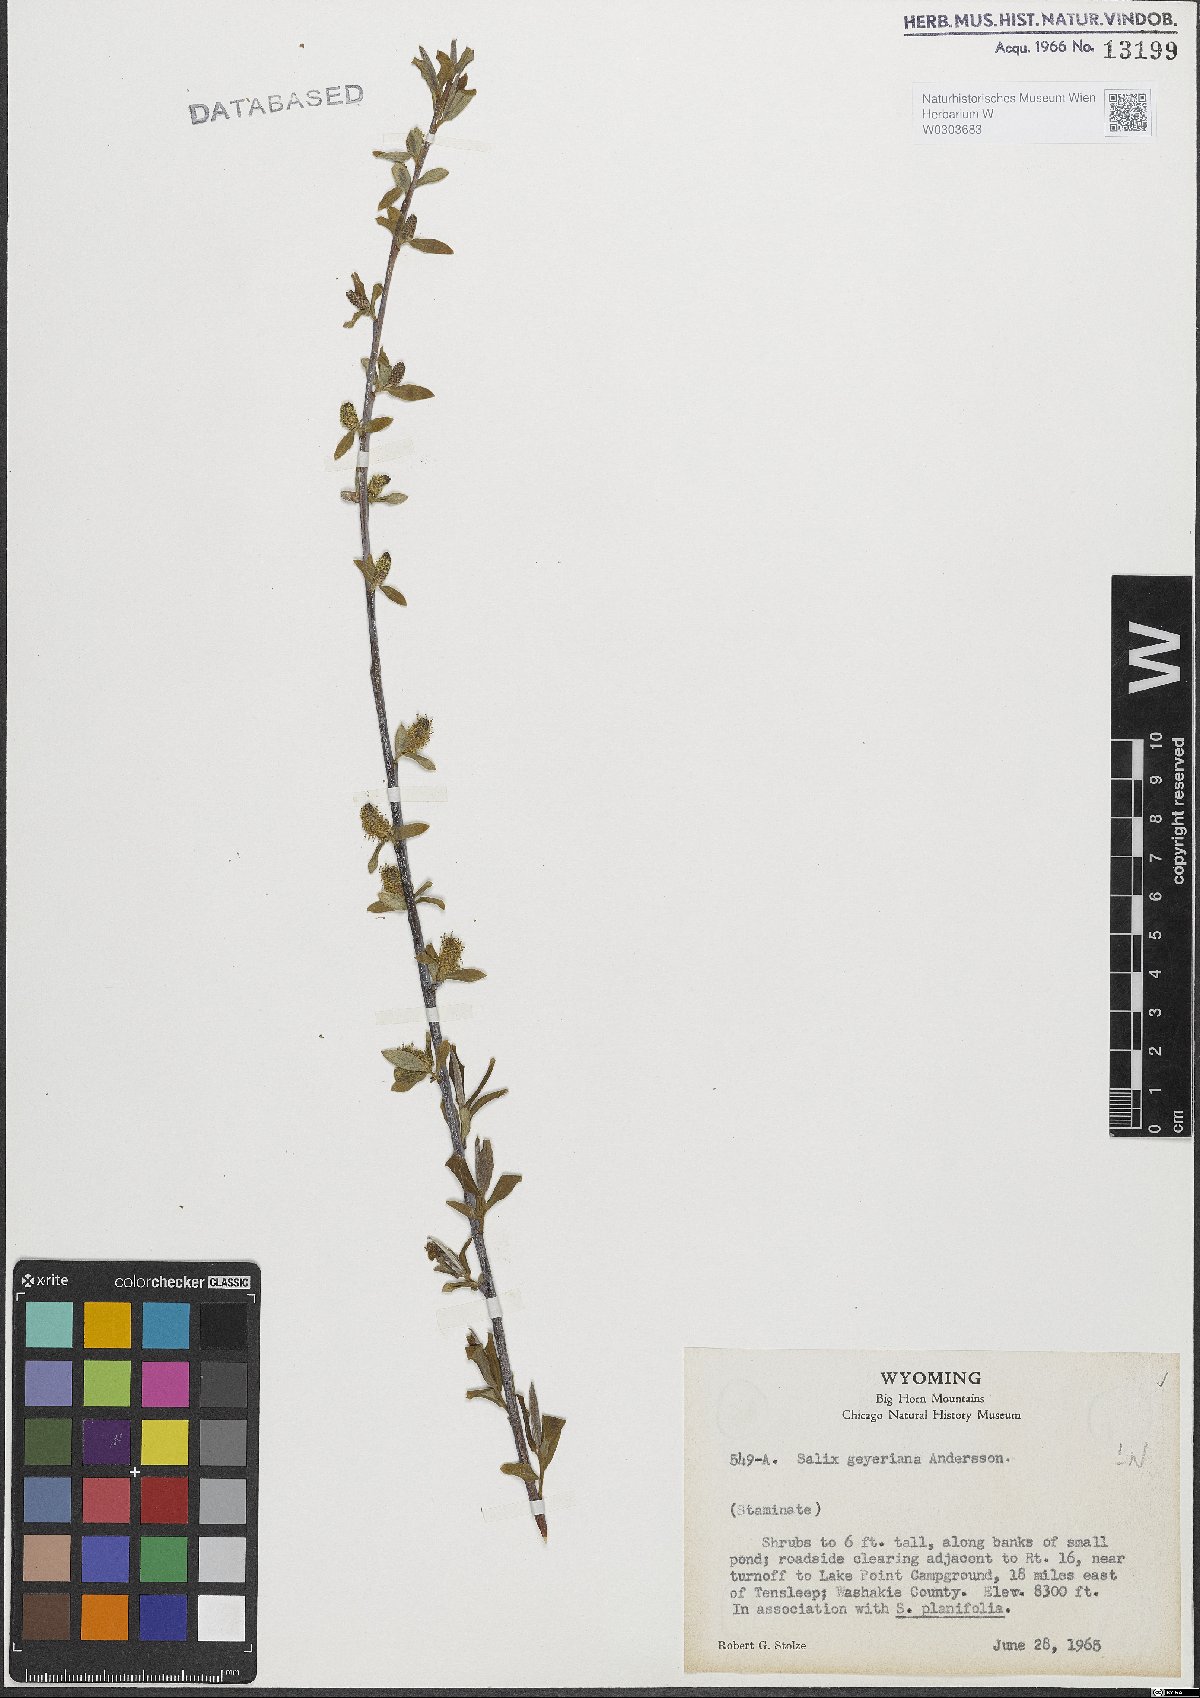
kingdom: Plantae
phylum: Tracheophyta
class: Magnoliopsida
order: Malpighiales
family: Salicaceae
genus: Salix
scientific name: Salix geyeriana
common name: Geyer's willow
